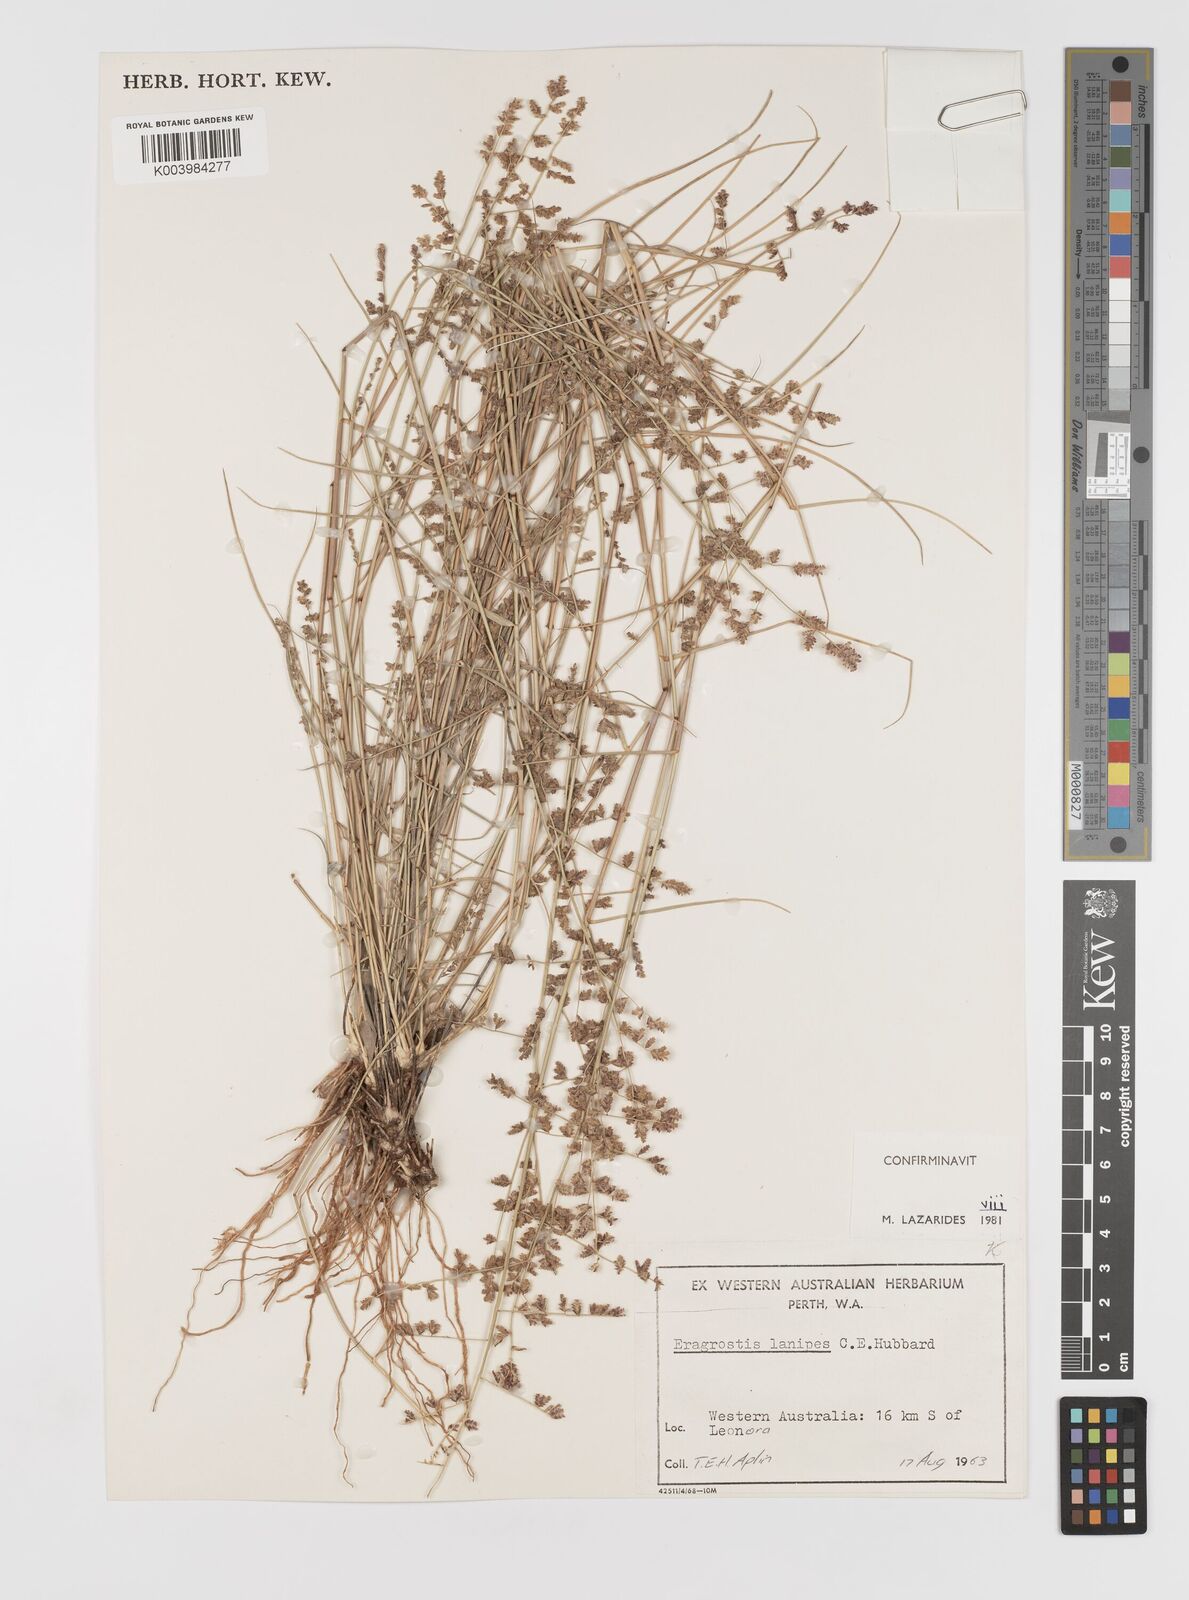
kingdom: Plantae
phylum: Tracheophyta
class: Liliopsida
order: Poales
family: Poaceae
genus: Eragrostis
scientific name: Eragrostis lanipes
